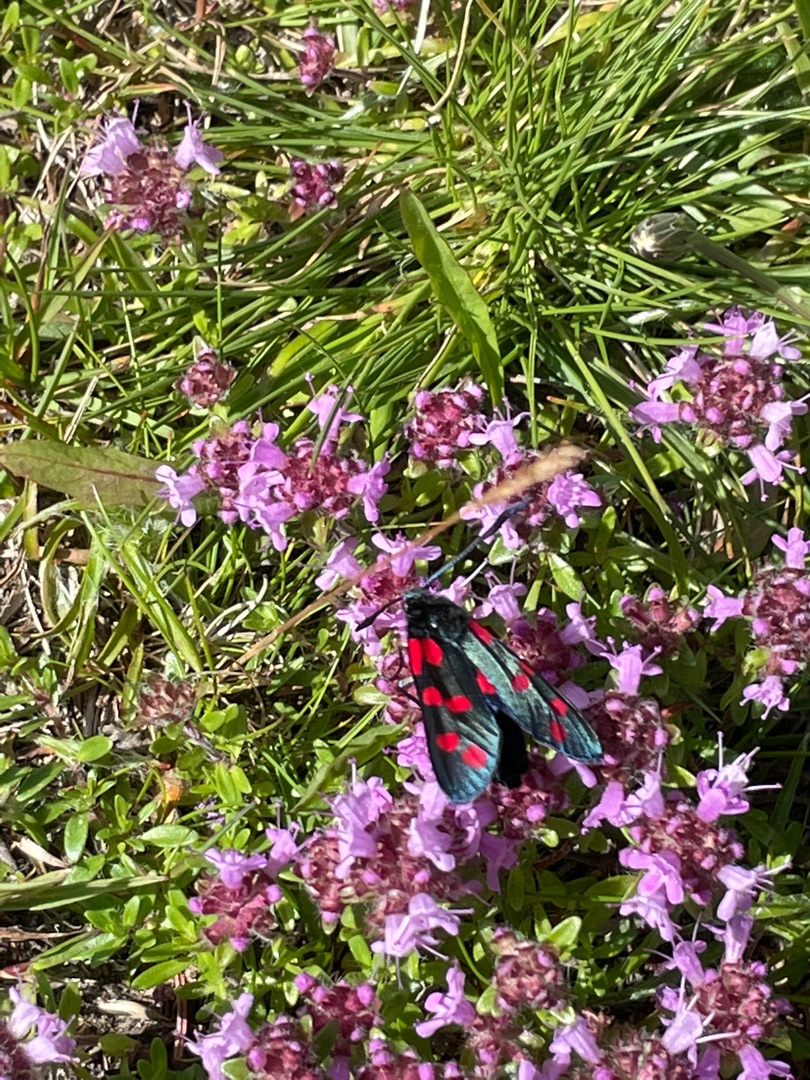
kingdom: Animalia
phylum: Arthropoda
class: Insecta
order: Lepidoptera
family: Zygaenidae
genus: Zygaena
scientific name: Zygaena filipendulae
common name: Seksplettet køllesværmer
